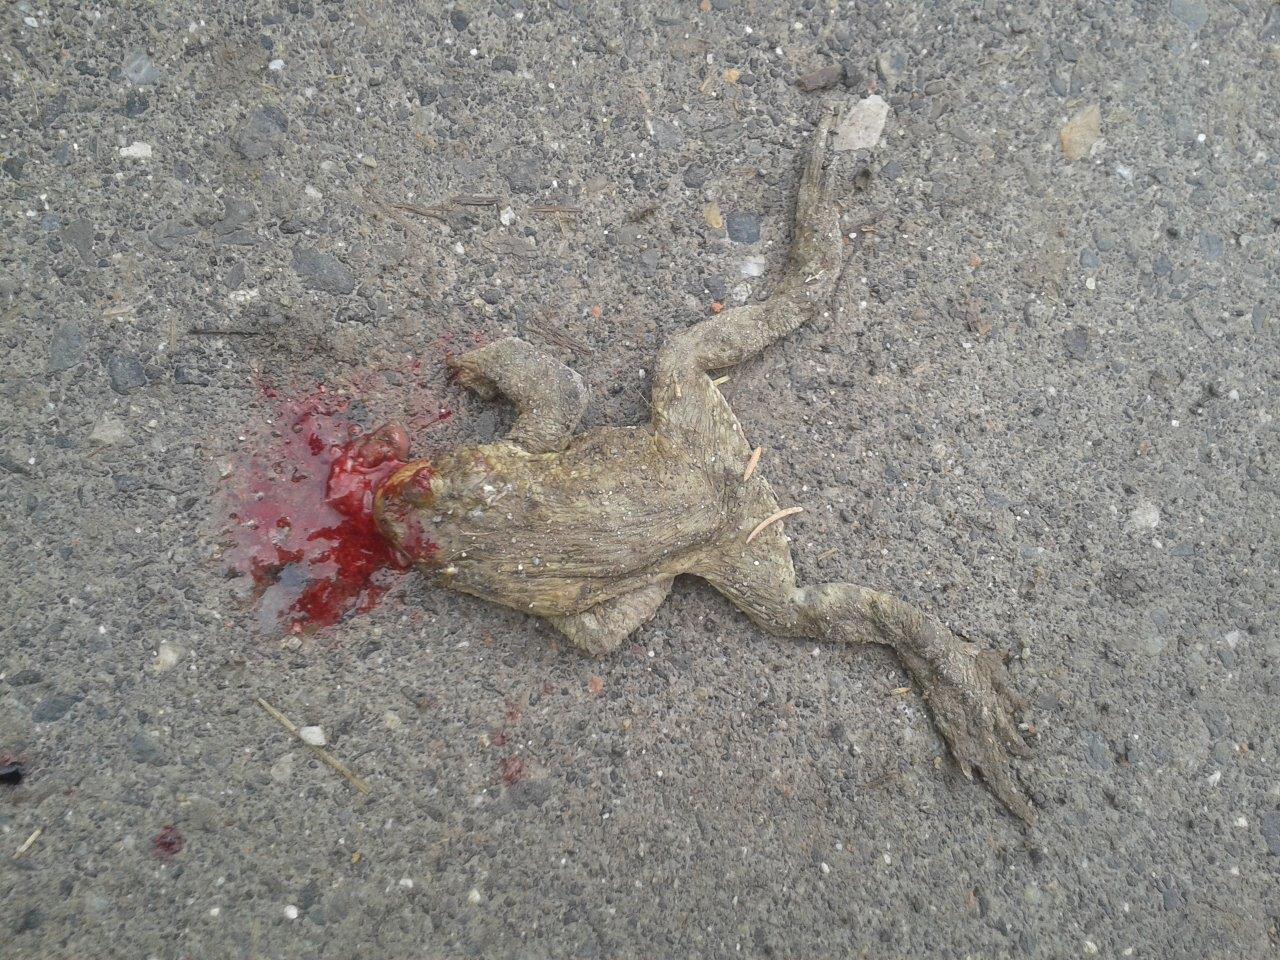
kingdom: Animalia
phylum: Chordata
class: Amphibia
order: Anura
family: Bufonidae
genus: Bufo
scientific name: Bufo bufo
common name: Common toad
